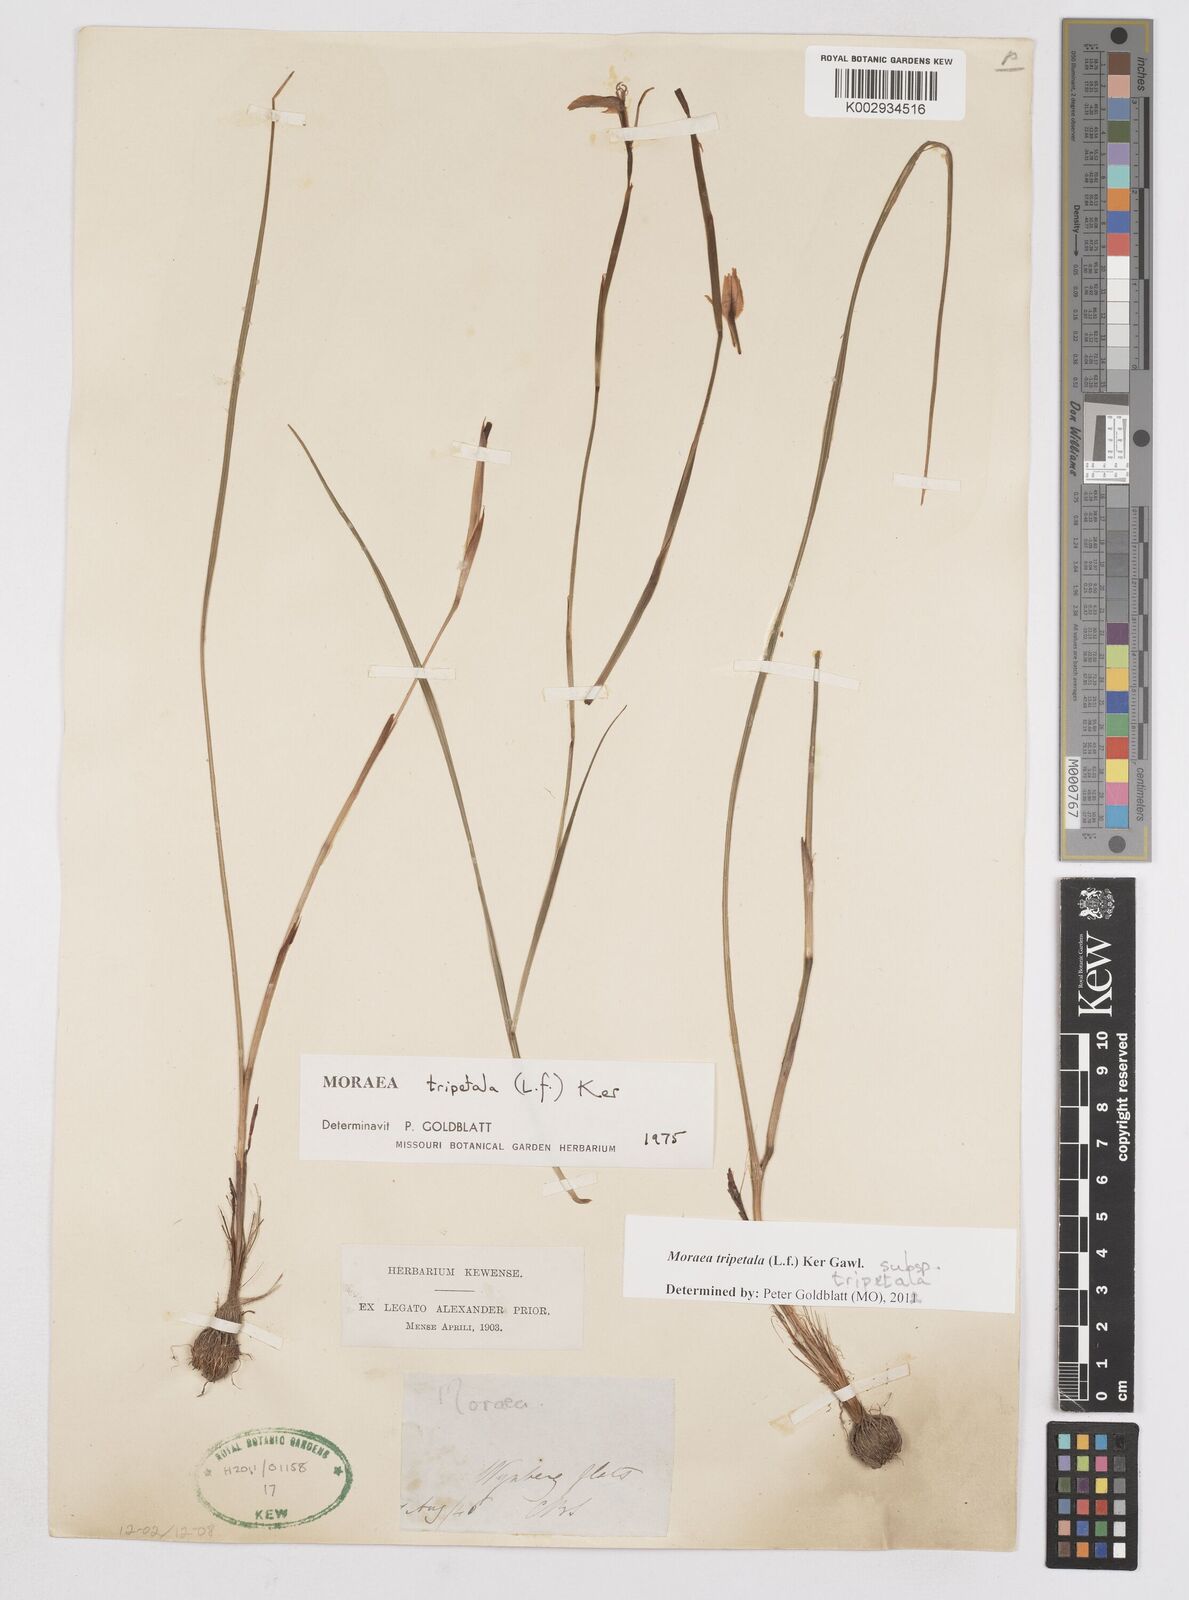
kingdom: Plantae
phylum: Tracheophyta
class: Liliopsida
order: Asparagales
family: Iridaceae
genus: Moraea
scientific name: Moraea tripetala
